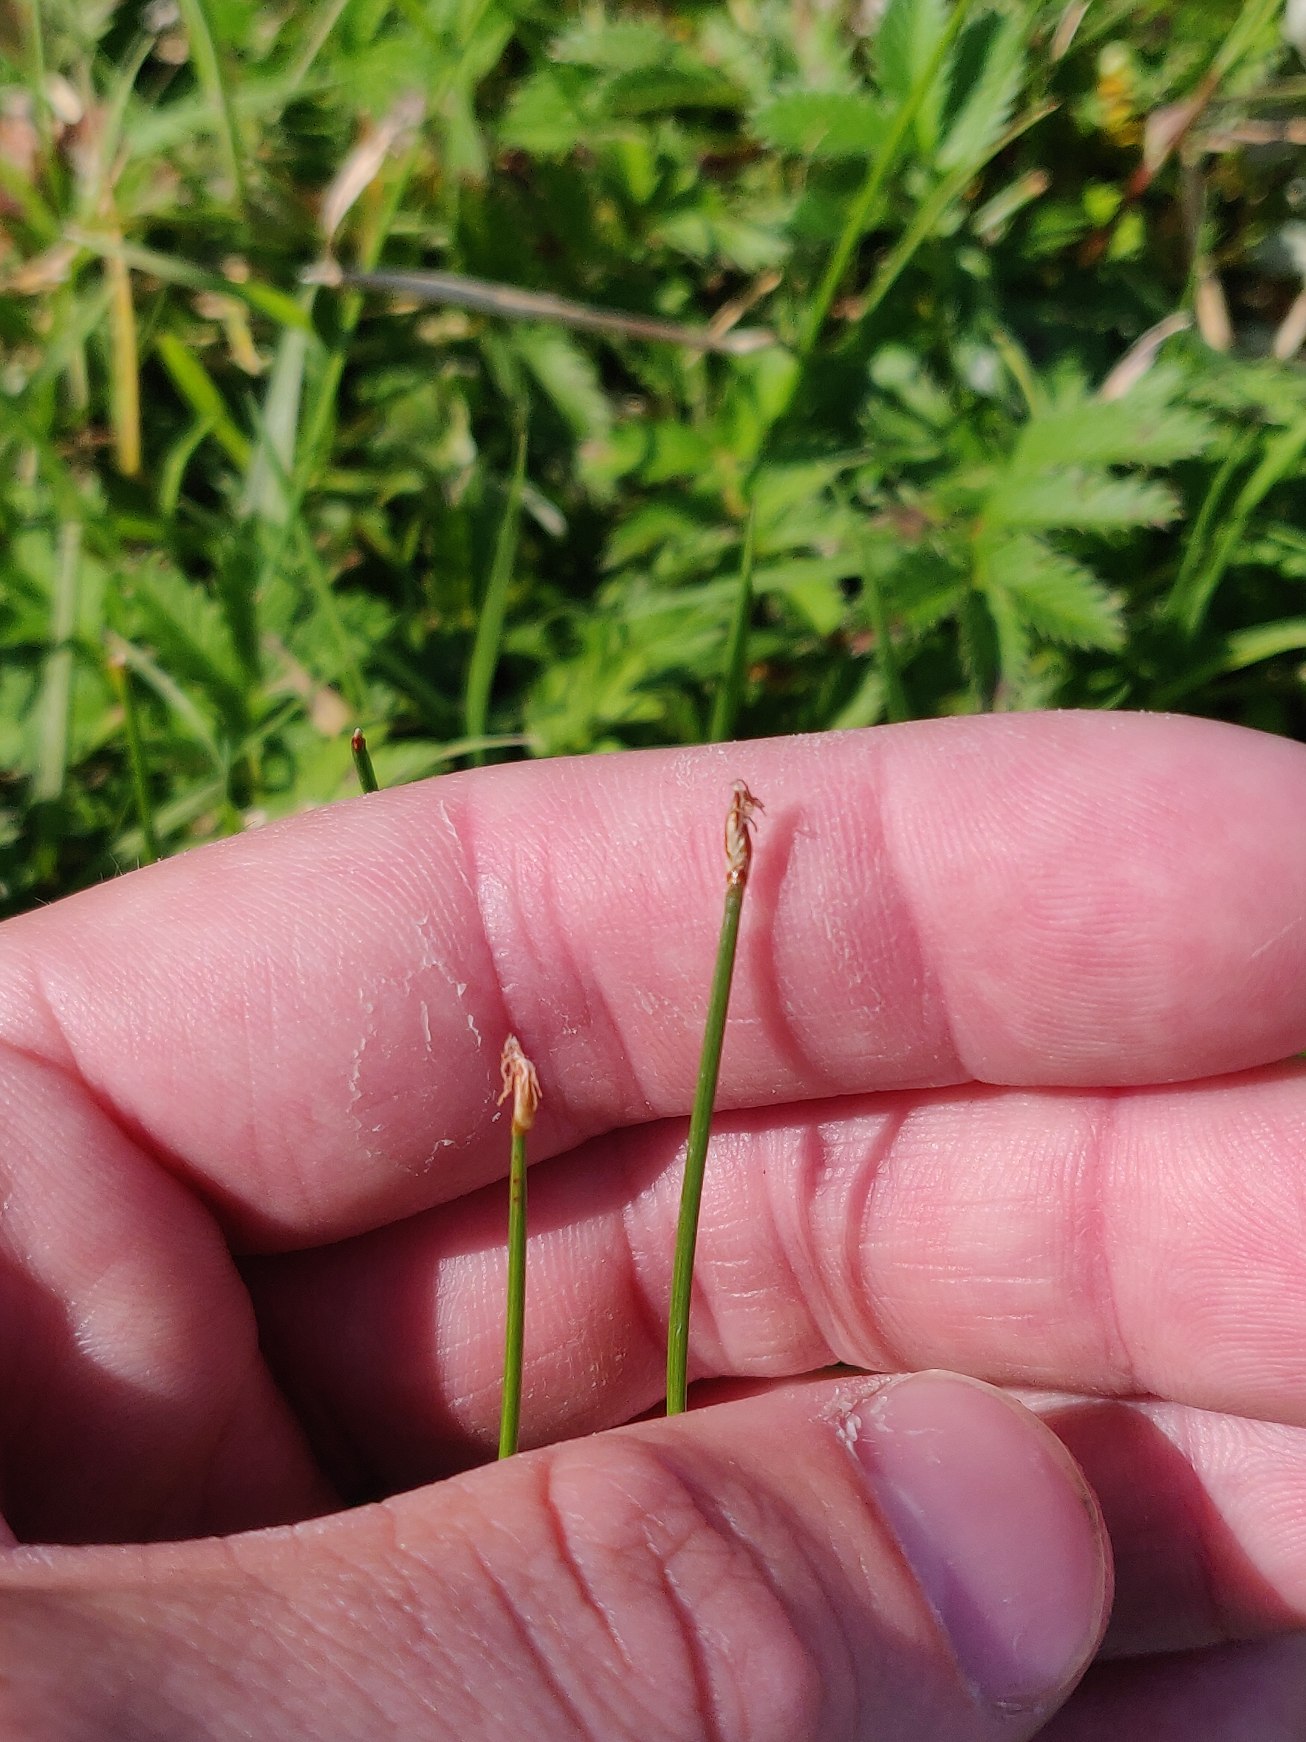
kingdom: Plantae
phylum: Tracheophyta
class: Liliopsida
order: Poales
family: Cyperaceae
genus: Eleocharis
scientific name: Eleocharis uniglumis
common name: Enskællet sumpstrå
